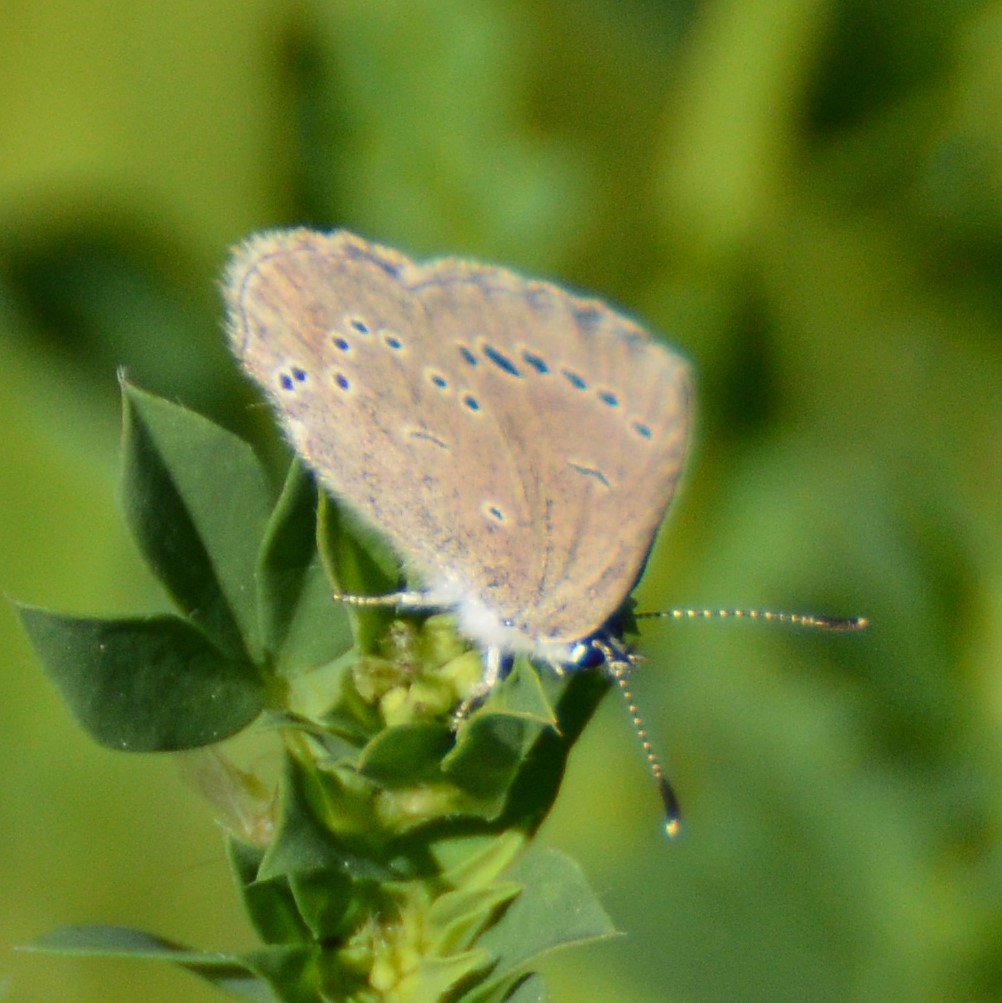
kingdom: Animalia
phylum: Arthropoda
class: Insecta
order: Lepidoptera
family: Lycaenidae
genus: Glaucopsyche
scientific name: Glaucopsyche lygdamus
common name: Silvery Blue
